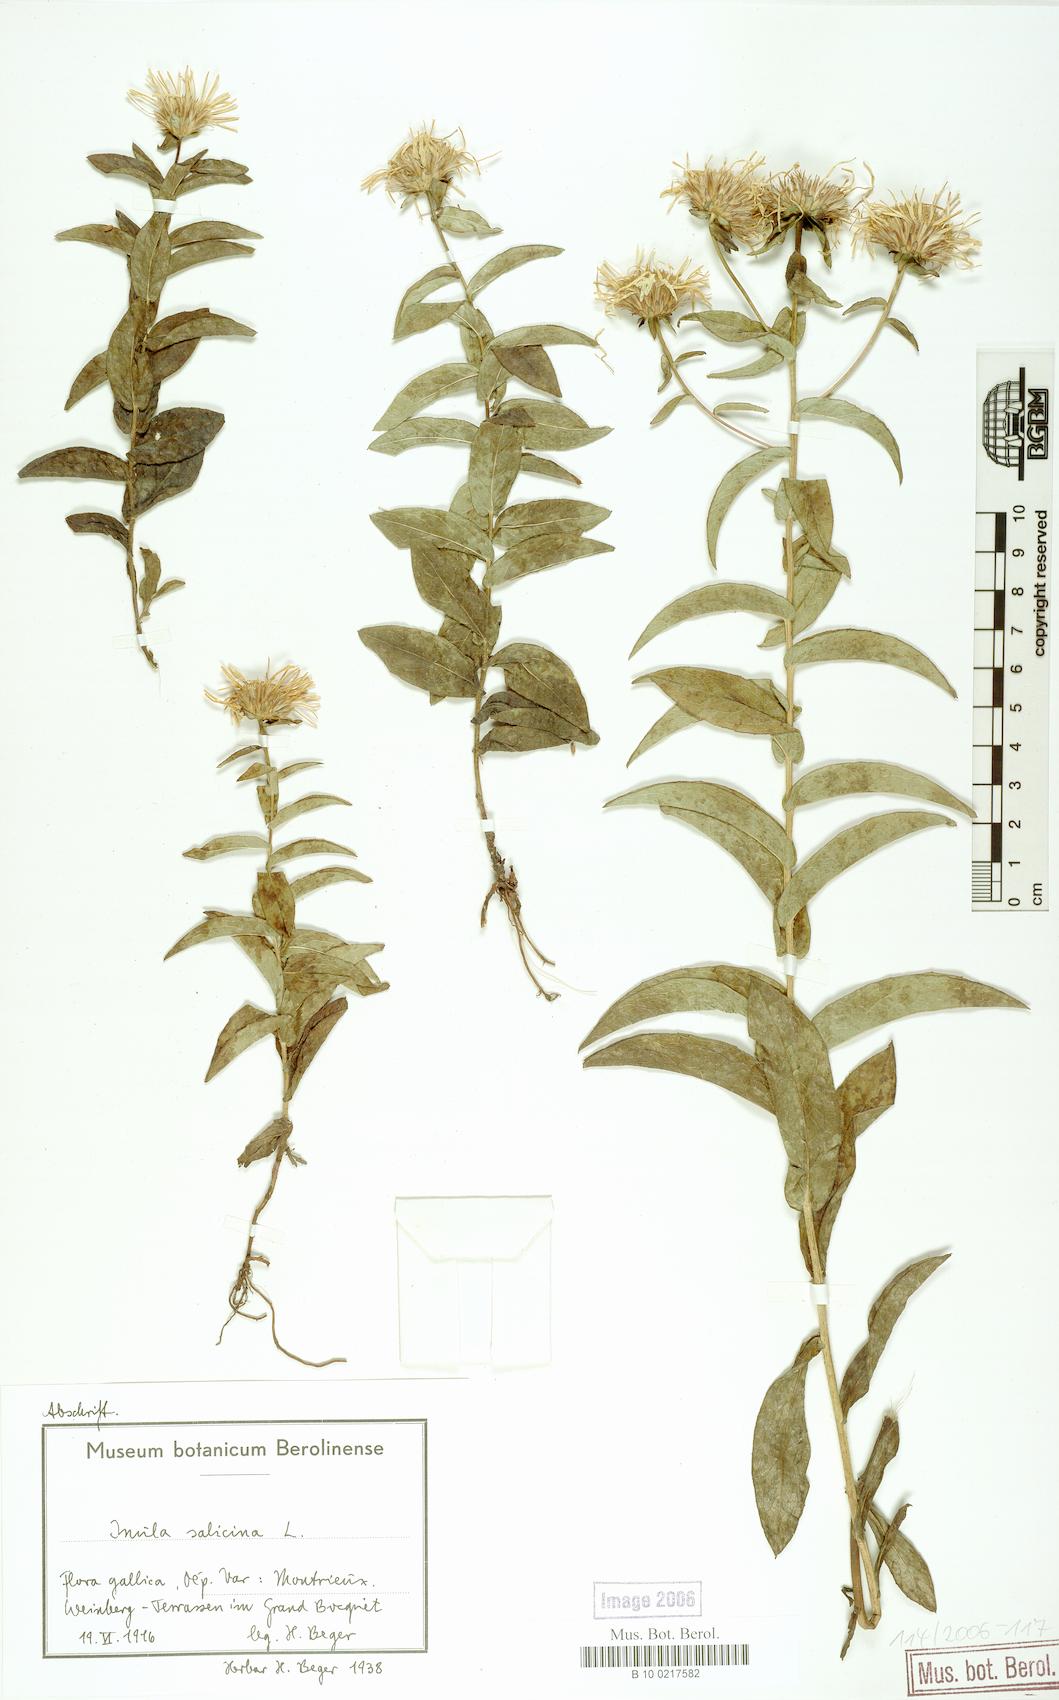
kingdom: Plantae
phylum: Tracheophyta
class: Magnoliopsida
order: Asterales
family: Asteraceae
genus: Pentanema
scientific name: Pentanema salicinum
